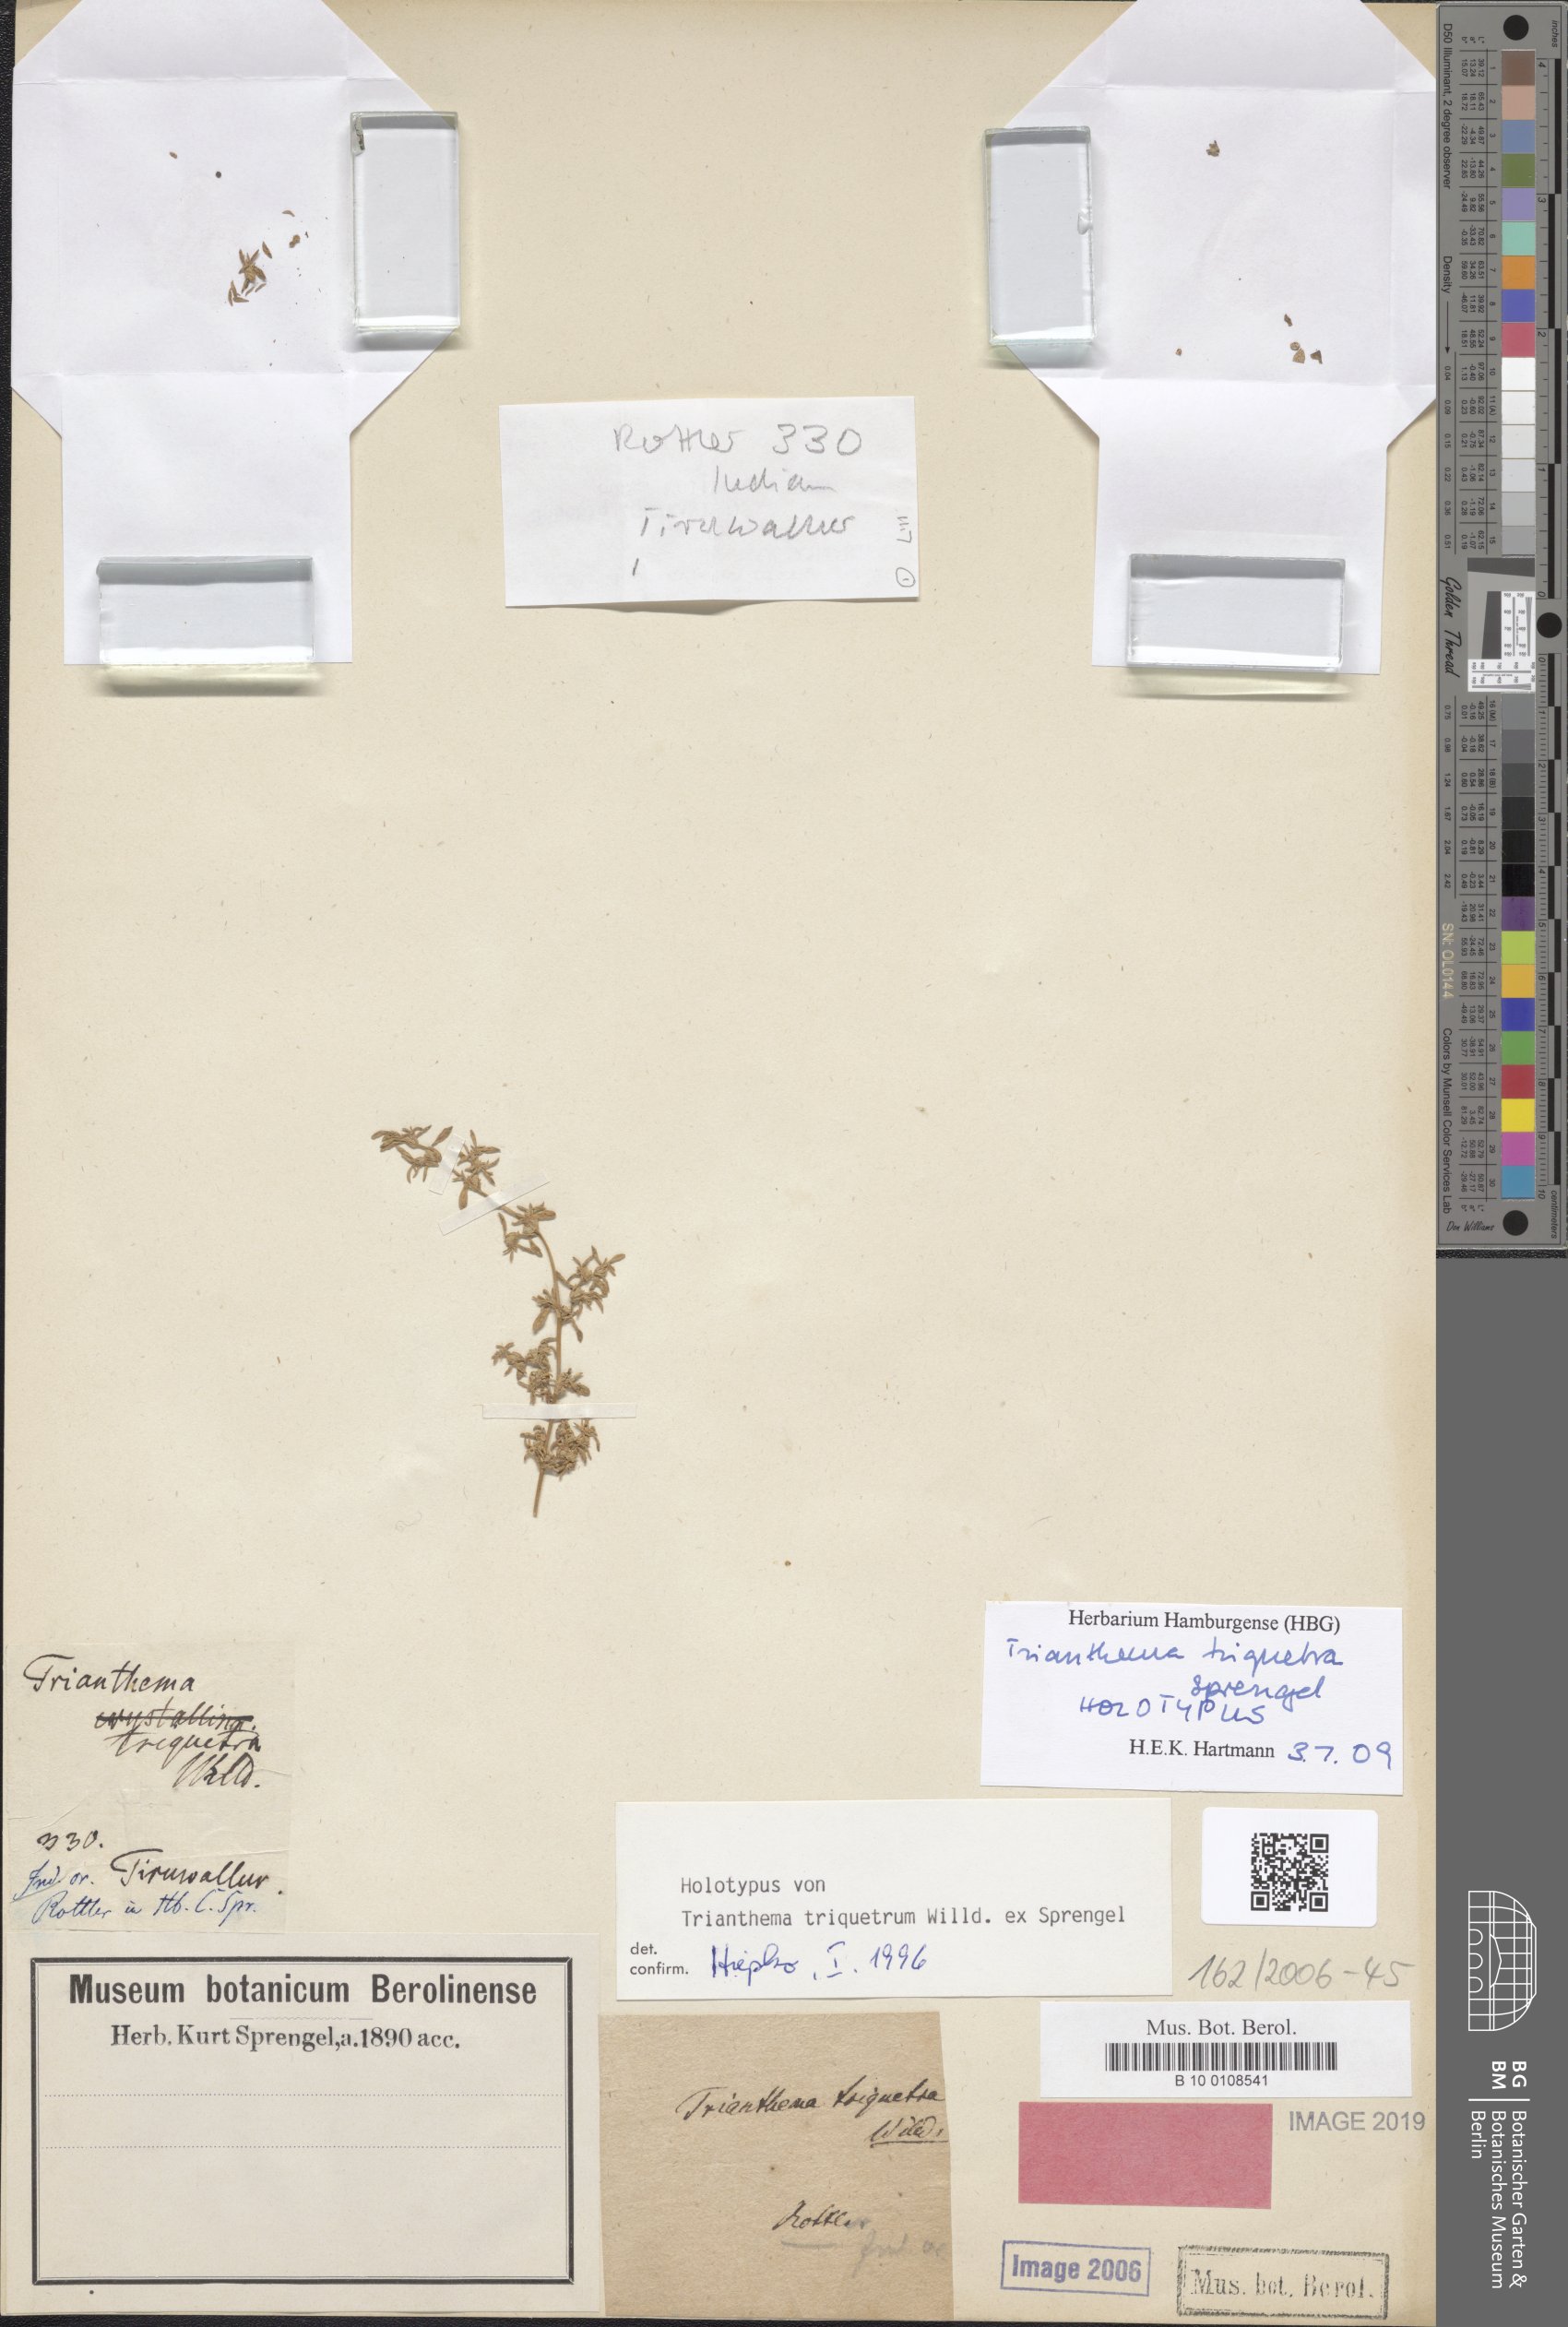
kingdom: Plantae
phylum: Tracheophyta
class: Magnoliopsida
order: Caryophyllales
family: Aizoaceae
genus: Trianthema
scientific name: Trianthema triquetrum
